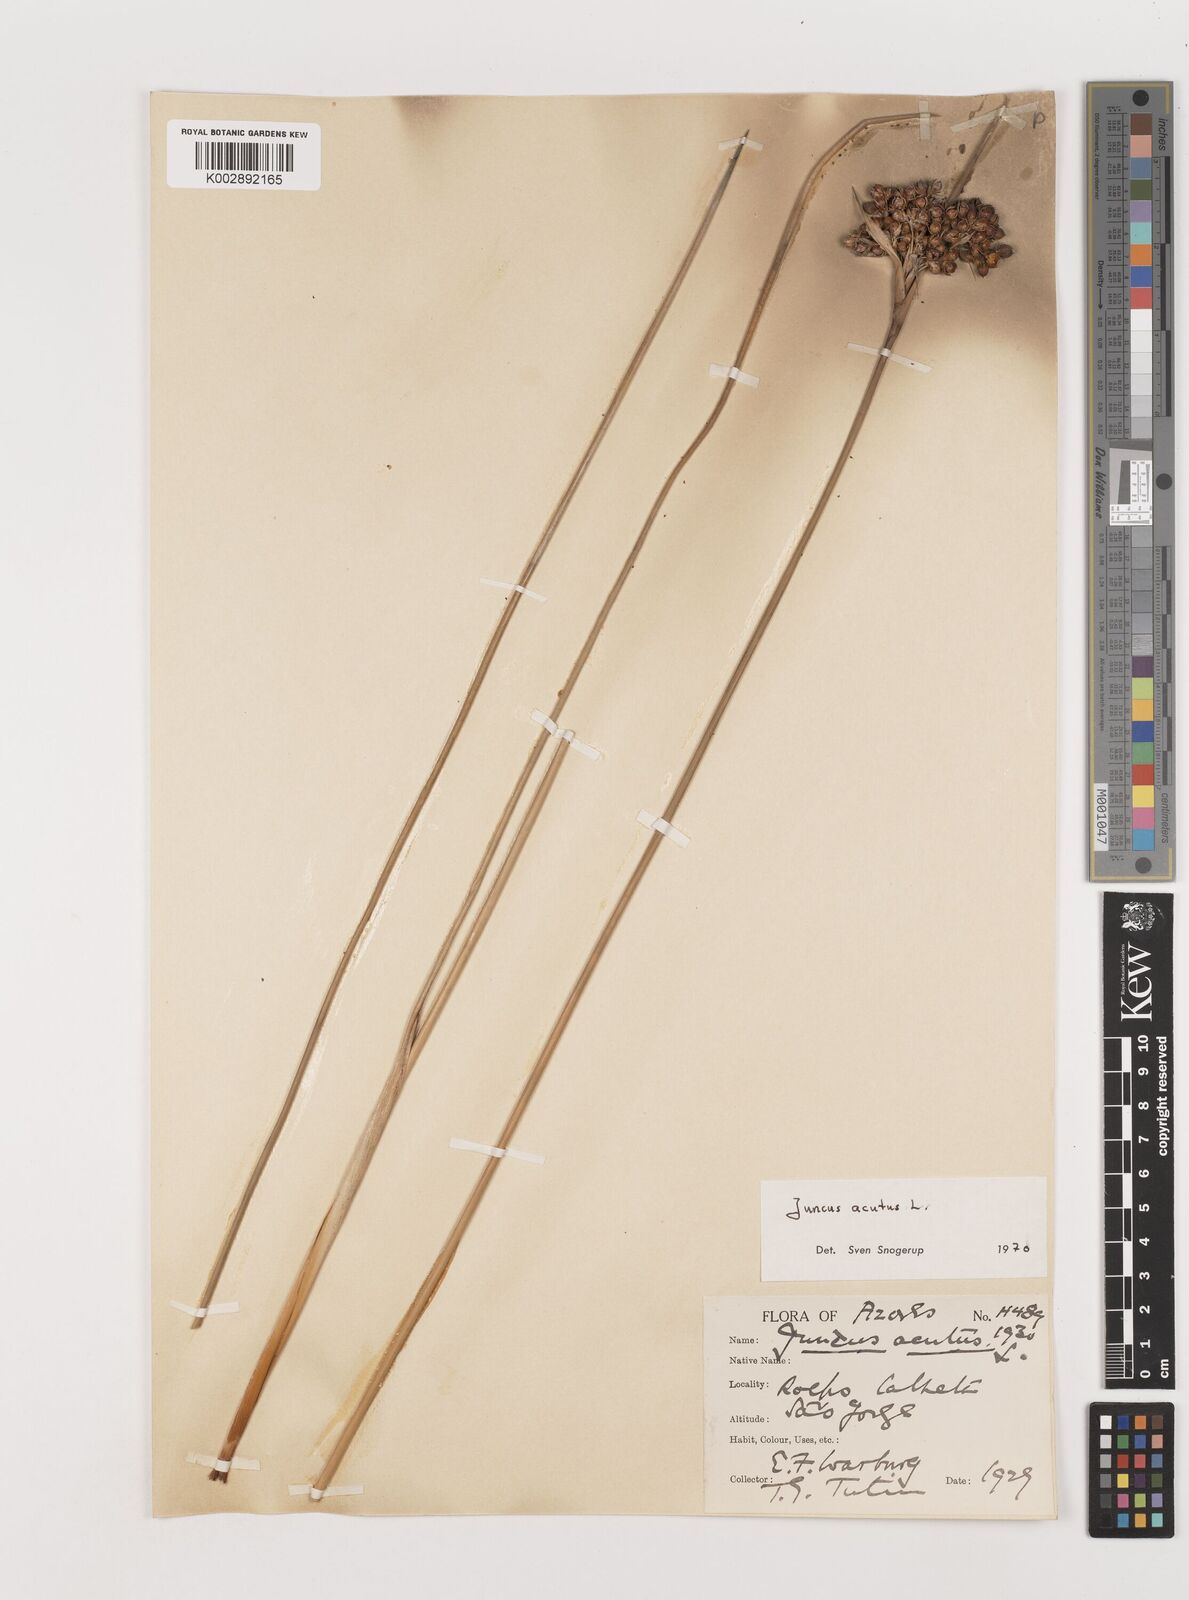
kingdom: Plantae
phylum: Tracheophyta
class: Liliopsida
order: Poales
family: Juncaceae
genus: Juncus
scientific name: Juncus acutus
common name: Sharp rush
